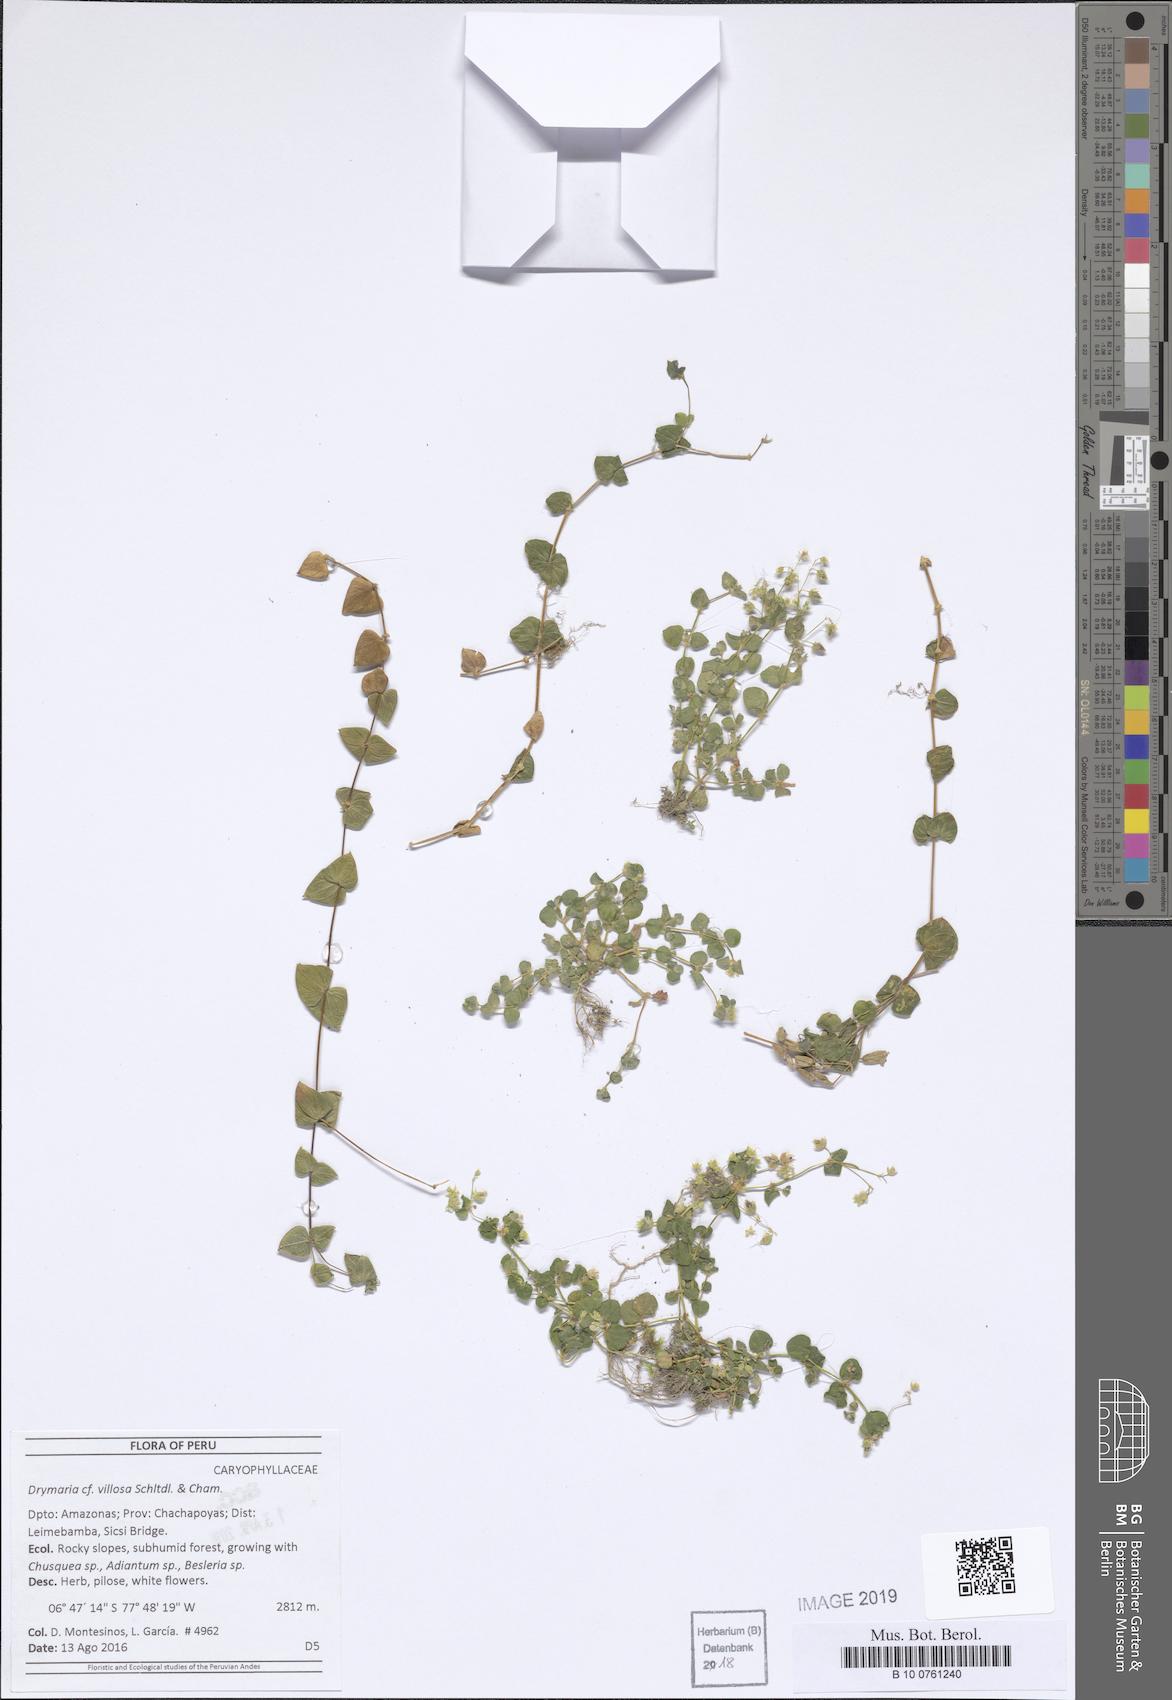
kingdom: Plantae
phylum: Tracheophyta
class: Magnoliopsida
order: Caryophyllales
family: Caryophyllaceae
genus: Drymaria
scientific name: Drymaria villosa
